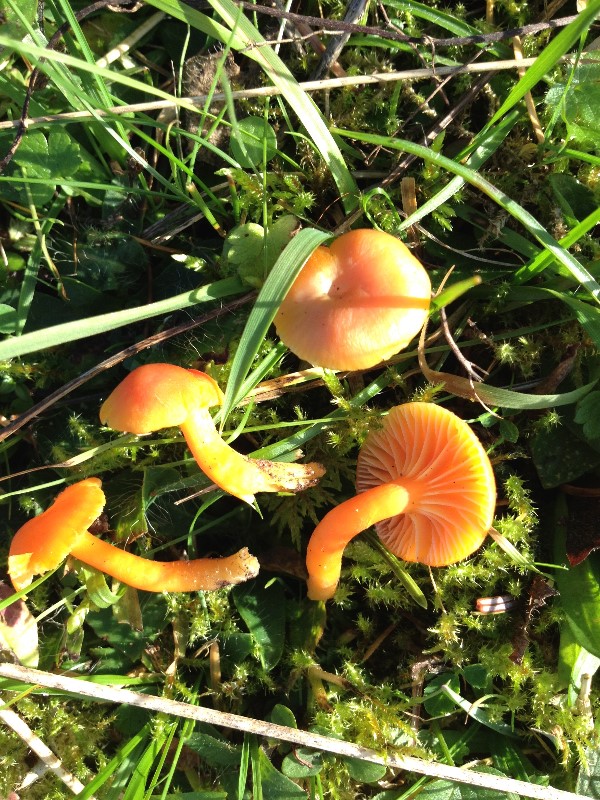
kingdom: Fungi
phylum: Basidiomycota
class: Agaricomycetes
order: Agaricales
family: Hygrophoraceae
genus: Hygrocybe
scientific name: Hygrocybe reidii
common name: honning-vokshat
